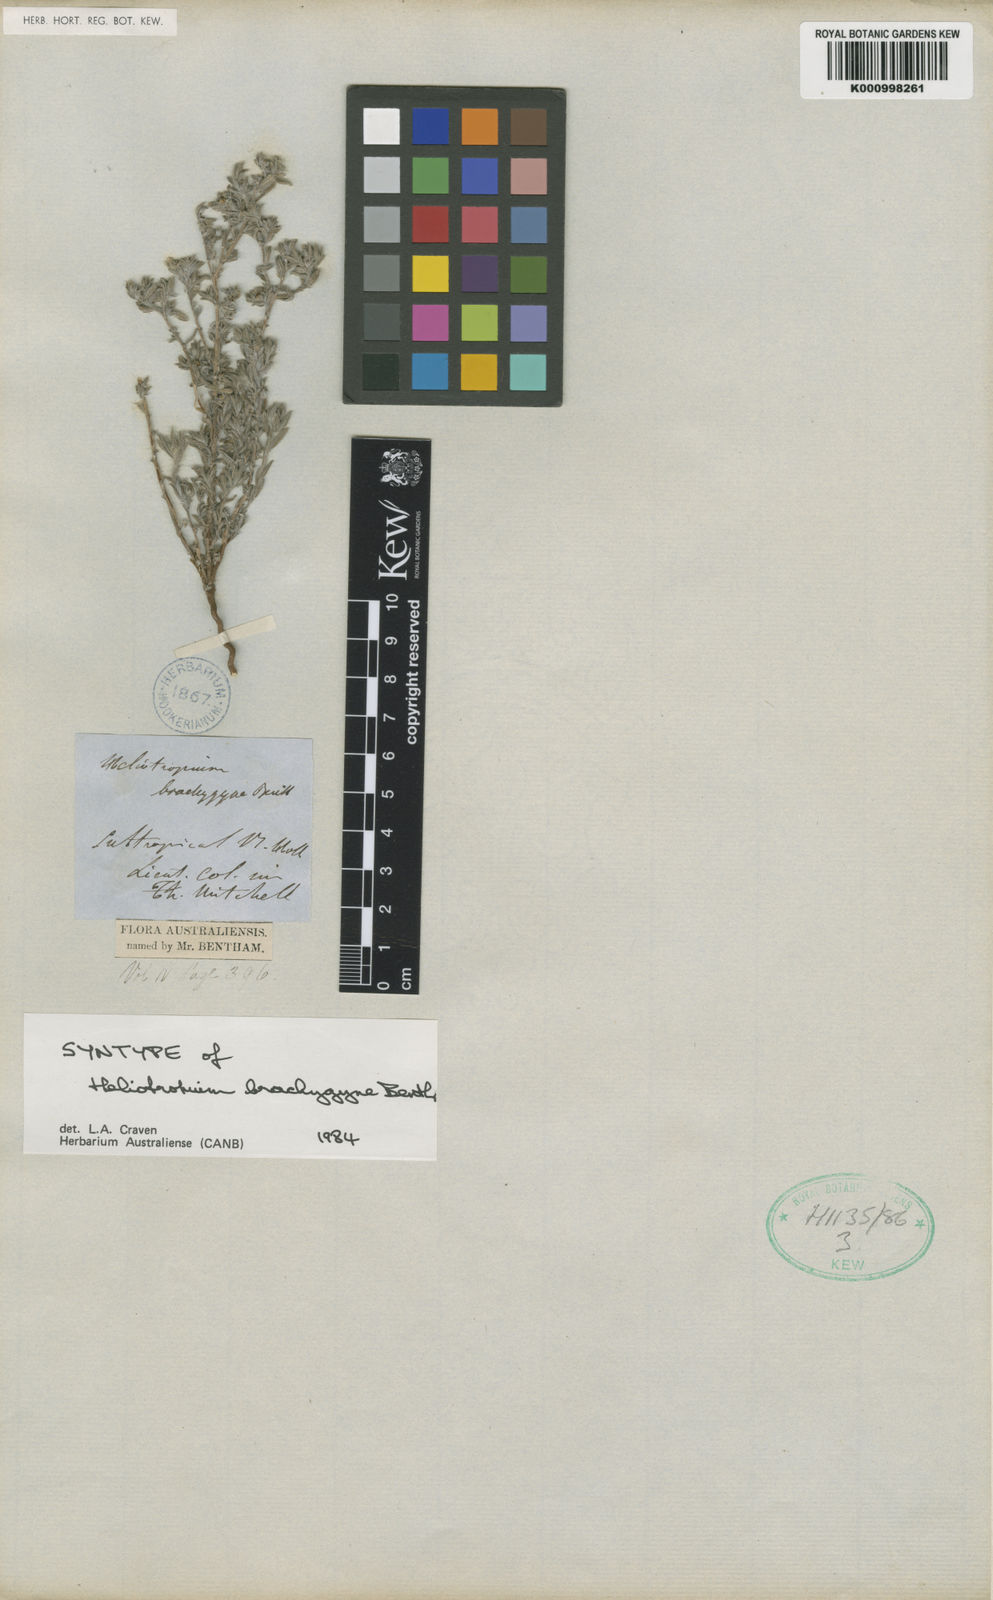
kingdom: Plantae
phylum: Tracheophyta
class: Magnoliopsida
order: Boraginales
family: Heliotropiaceae
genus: Euploca
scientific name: Euploca brachygyne
